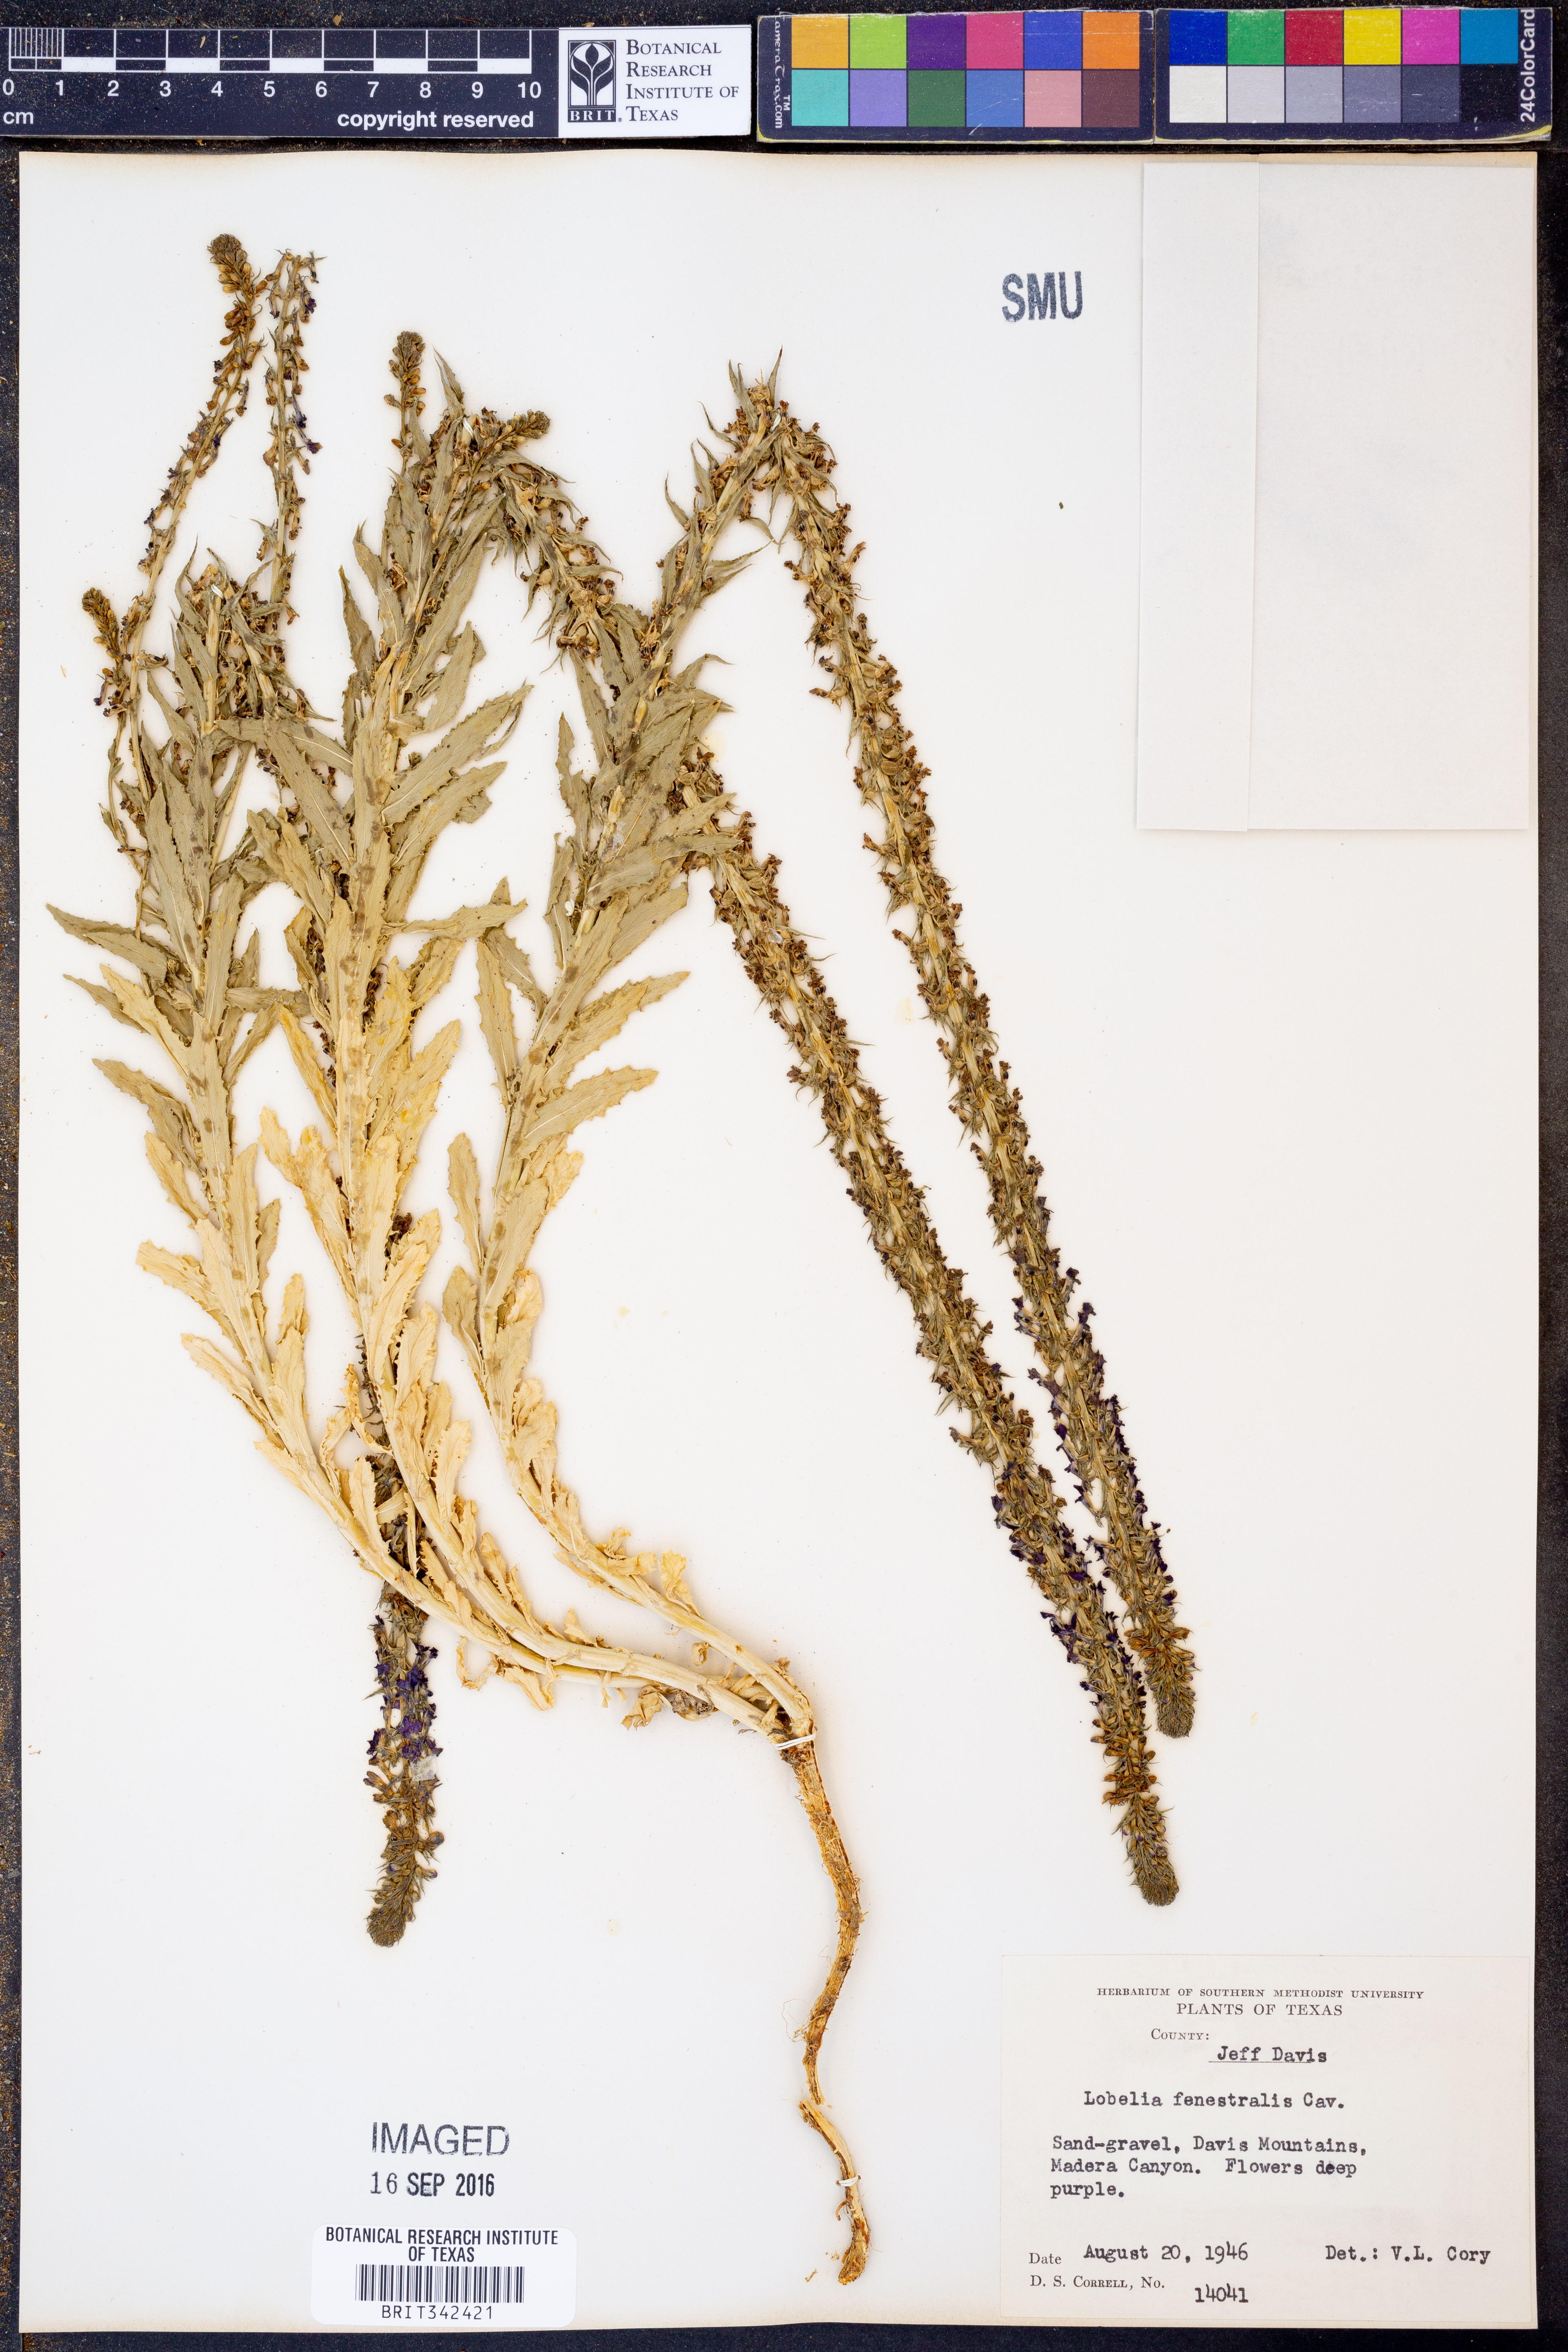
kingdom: Plantae
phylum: Tracheophyta
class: Magnoliopsida
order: Asterales
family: Campanulaceae
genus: Lobelia
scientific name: Lobelia fenestralis
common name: Leafy lobelia
